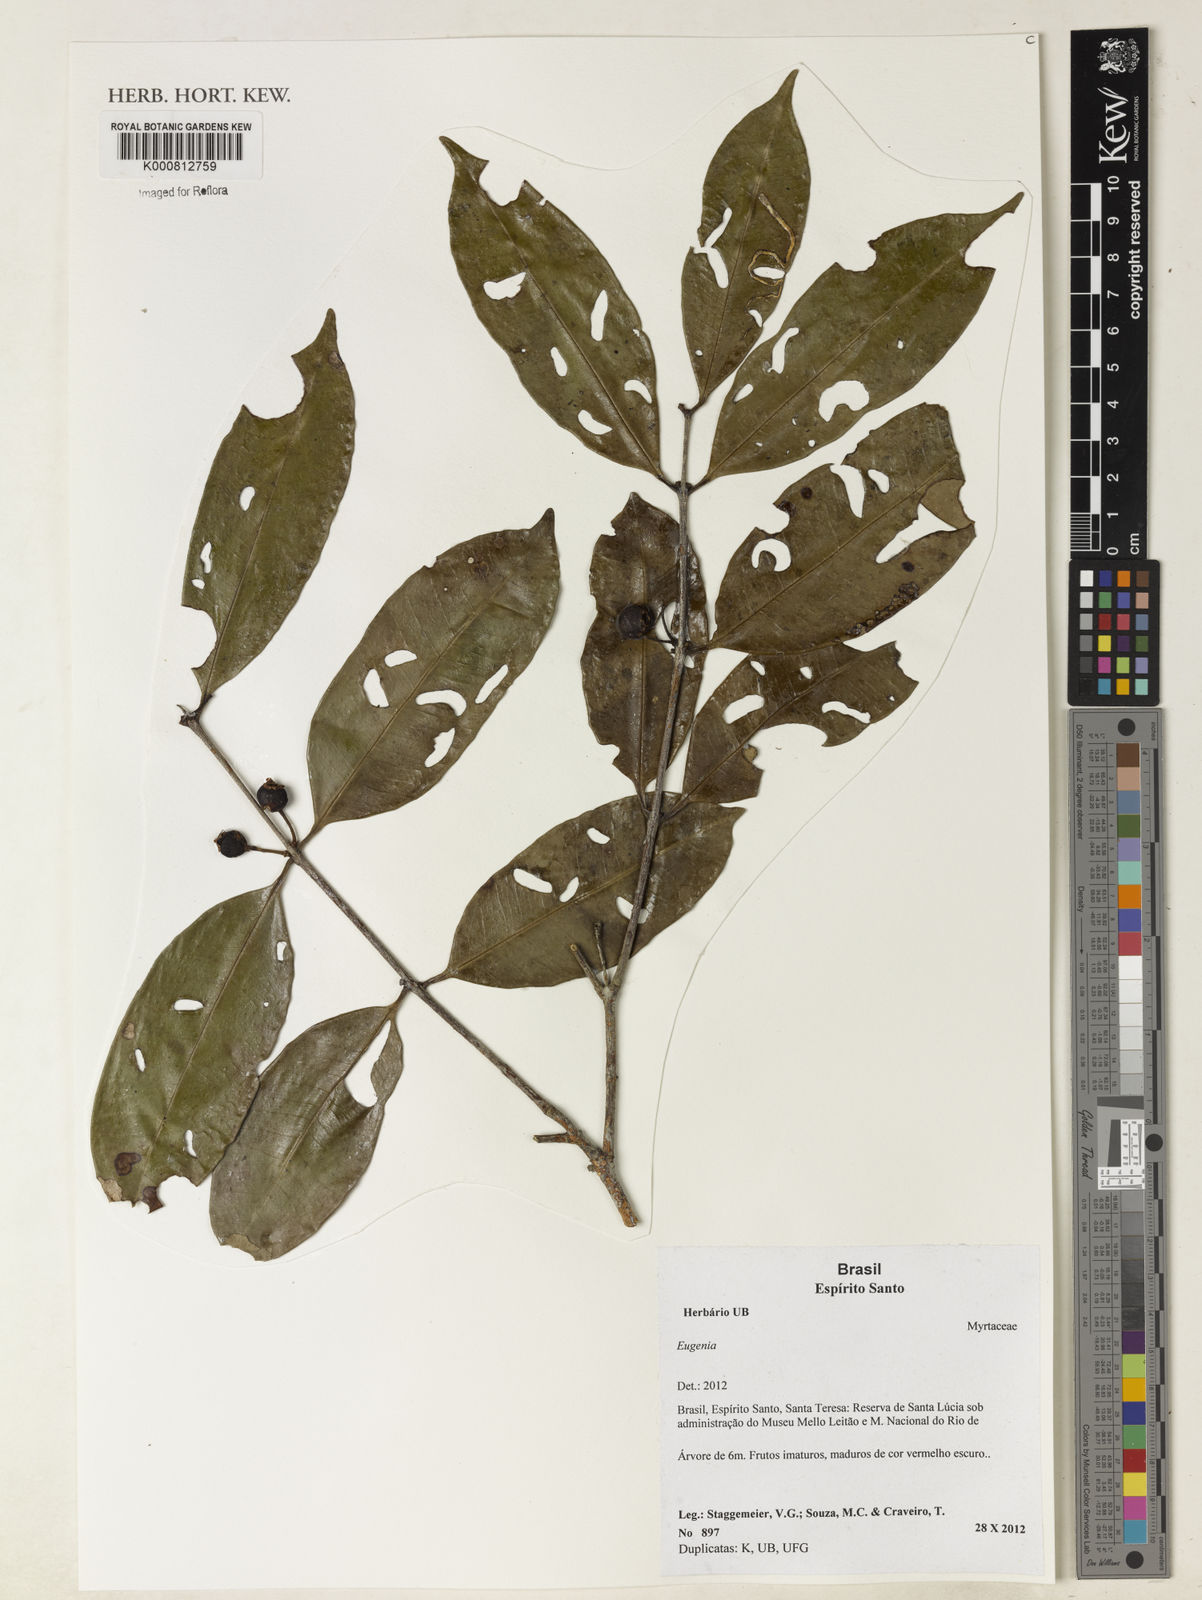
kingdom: Plantae
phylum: Tracheophyta
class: Magnoliopsida
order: Myrtales
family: Myrtaceae
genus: Eugenia
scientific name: Eugenia
